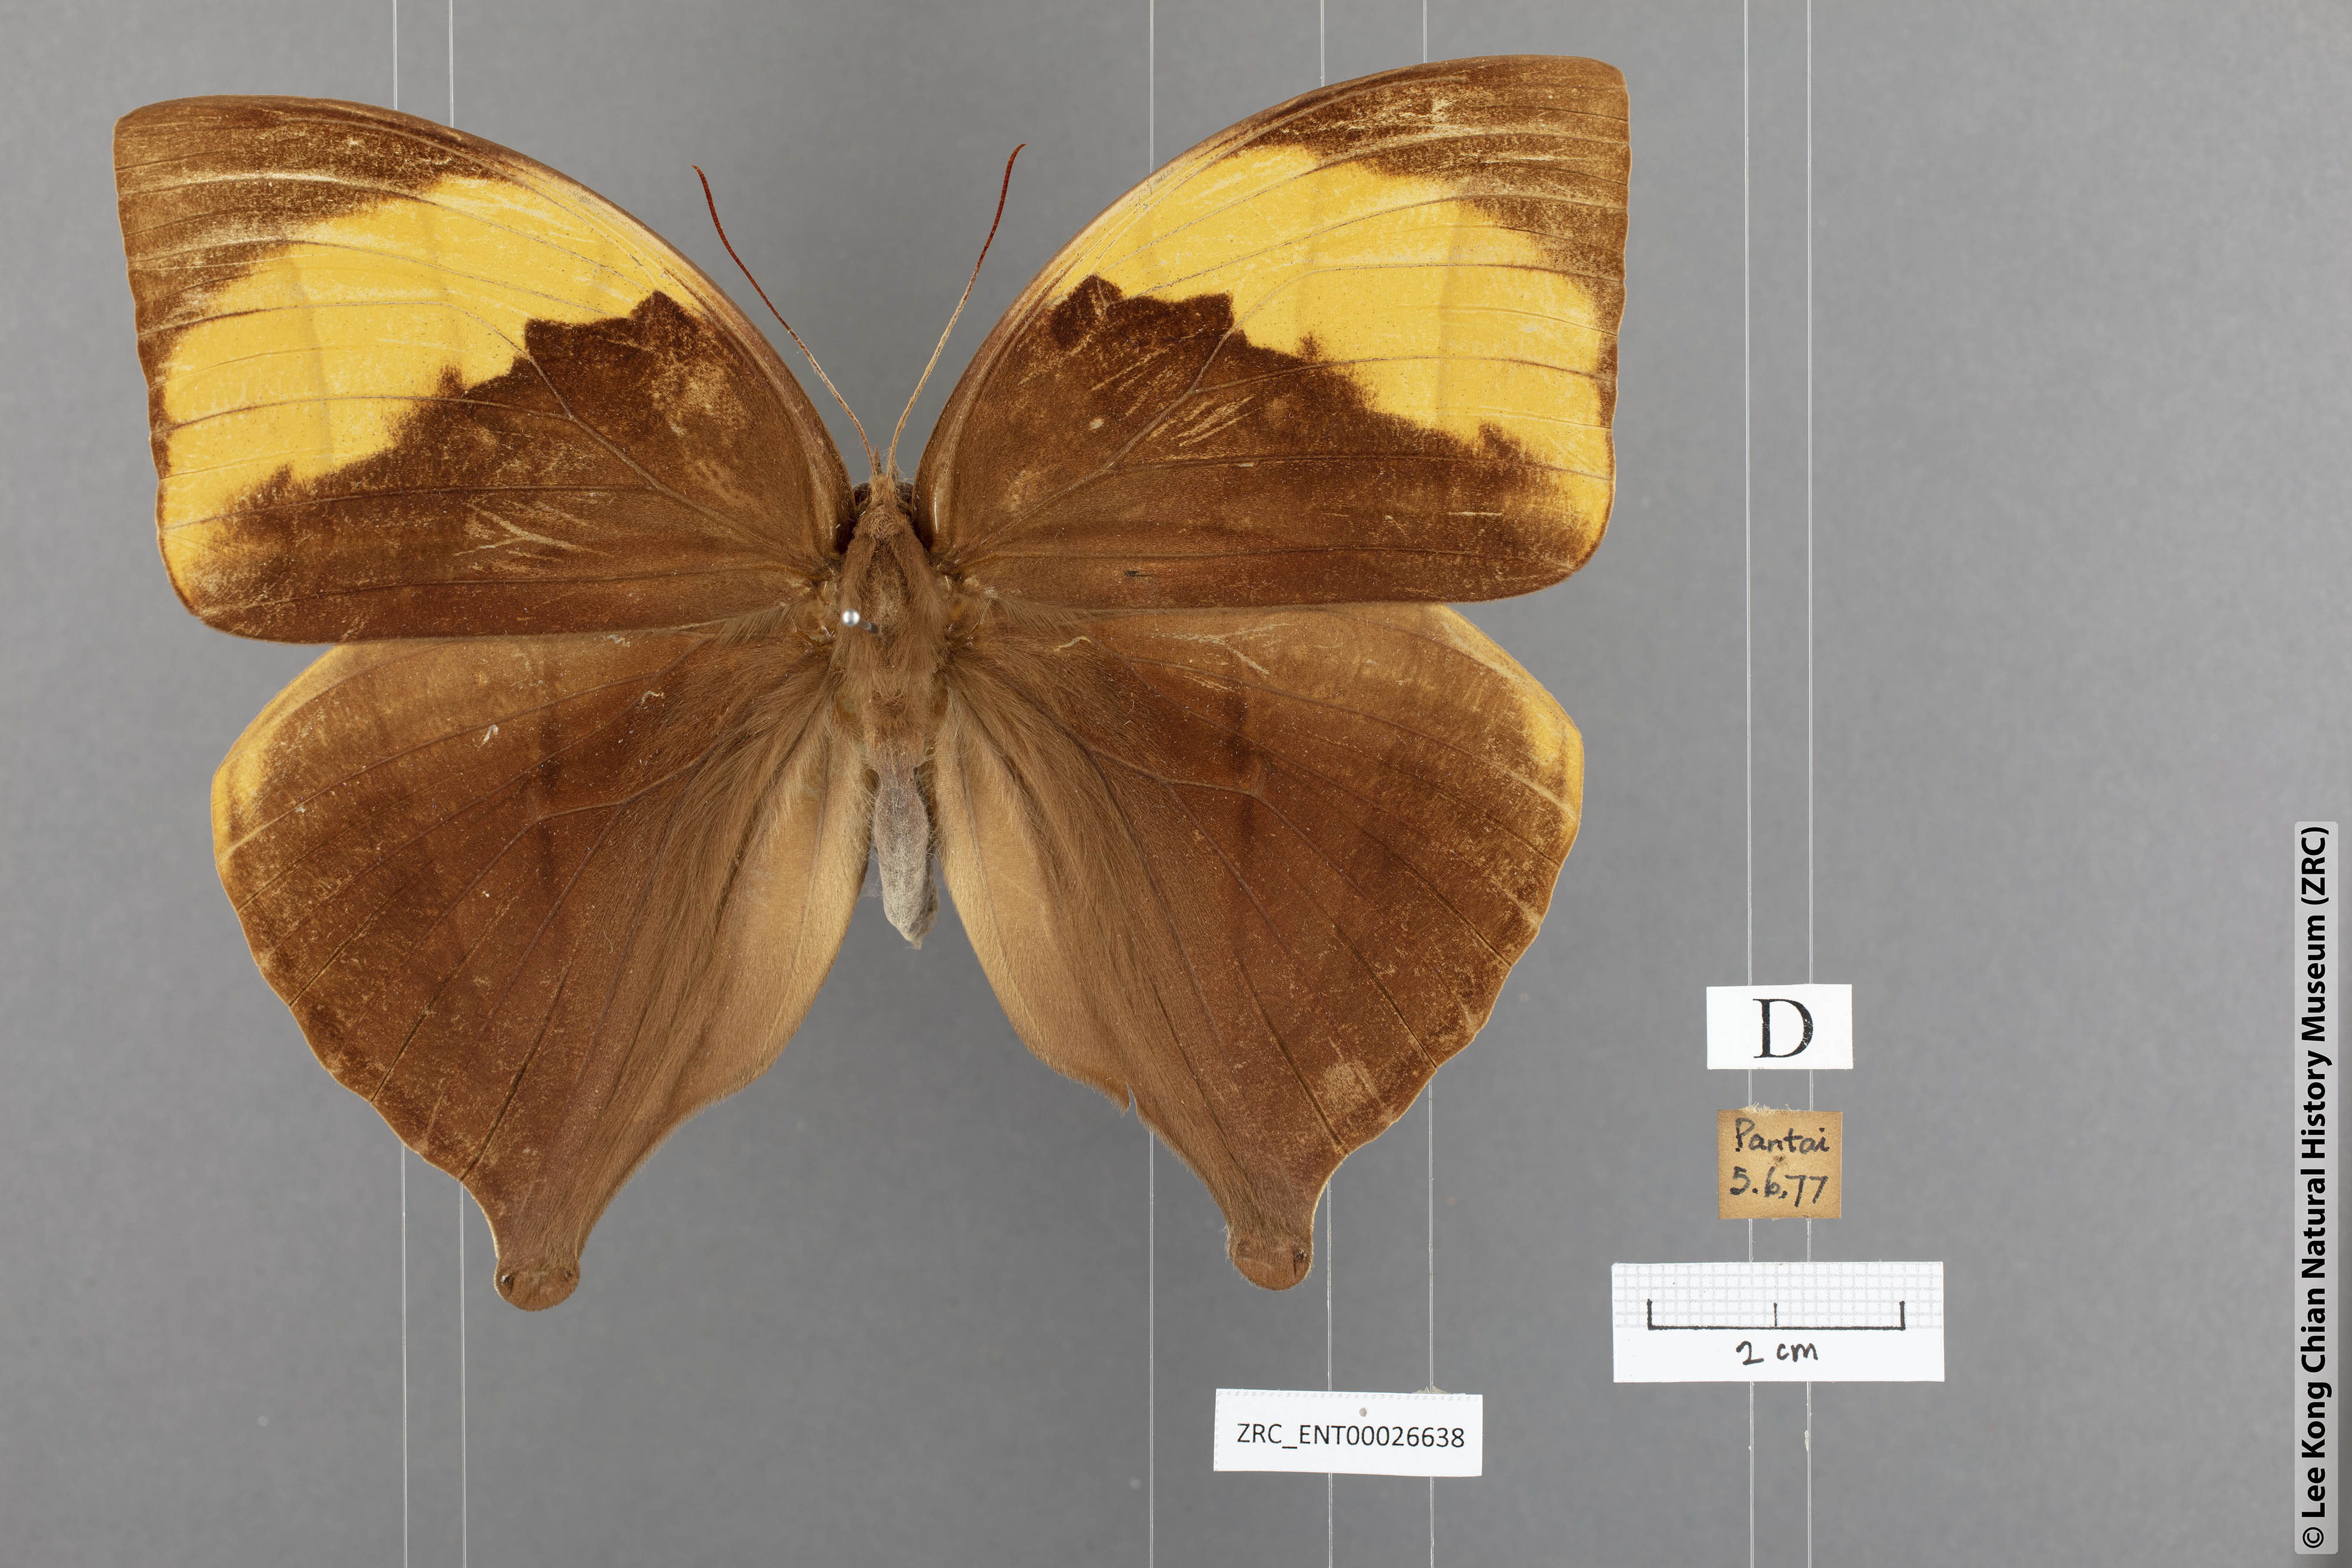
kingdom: Animalia
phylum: Arthropoda
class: Insecta
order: Lepidoptera
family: Nymphalidae
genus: Amathuxidia
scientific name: Amathuxidia amythaon
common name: Koh-i-noor
